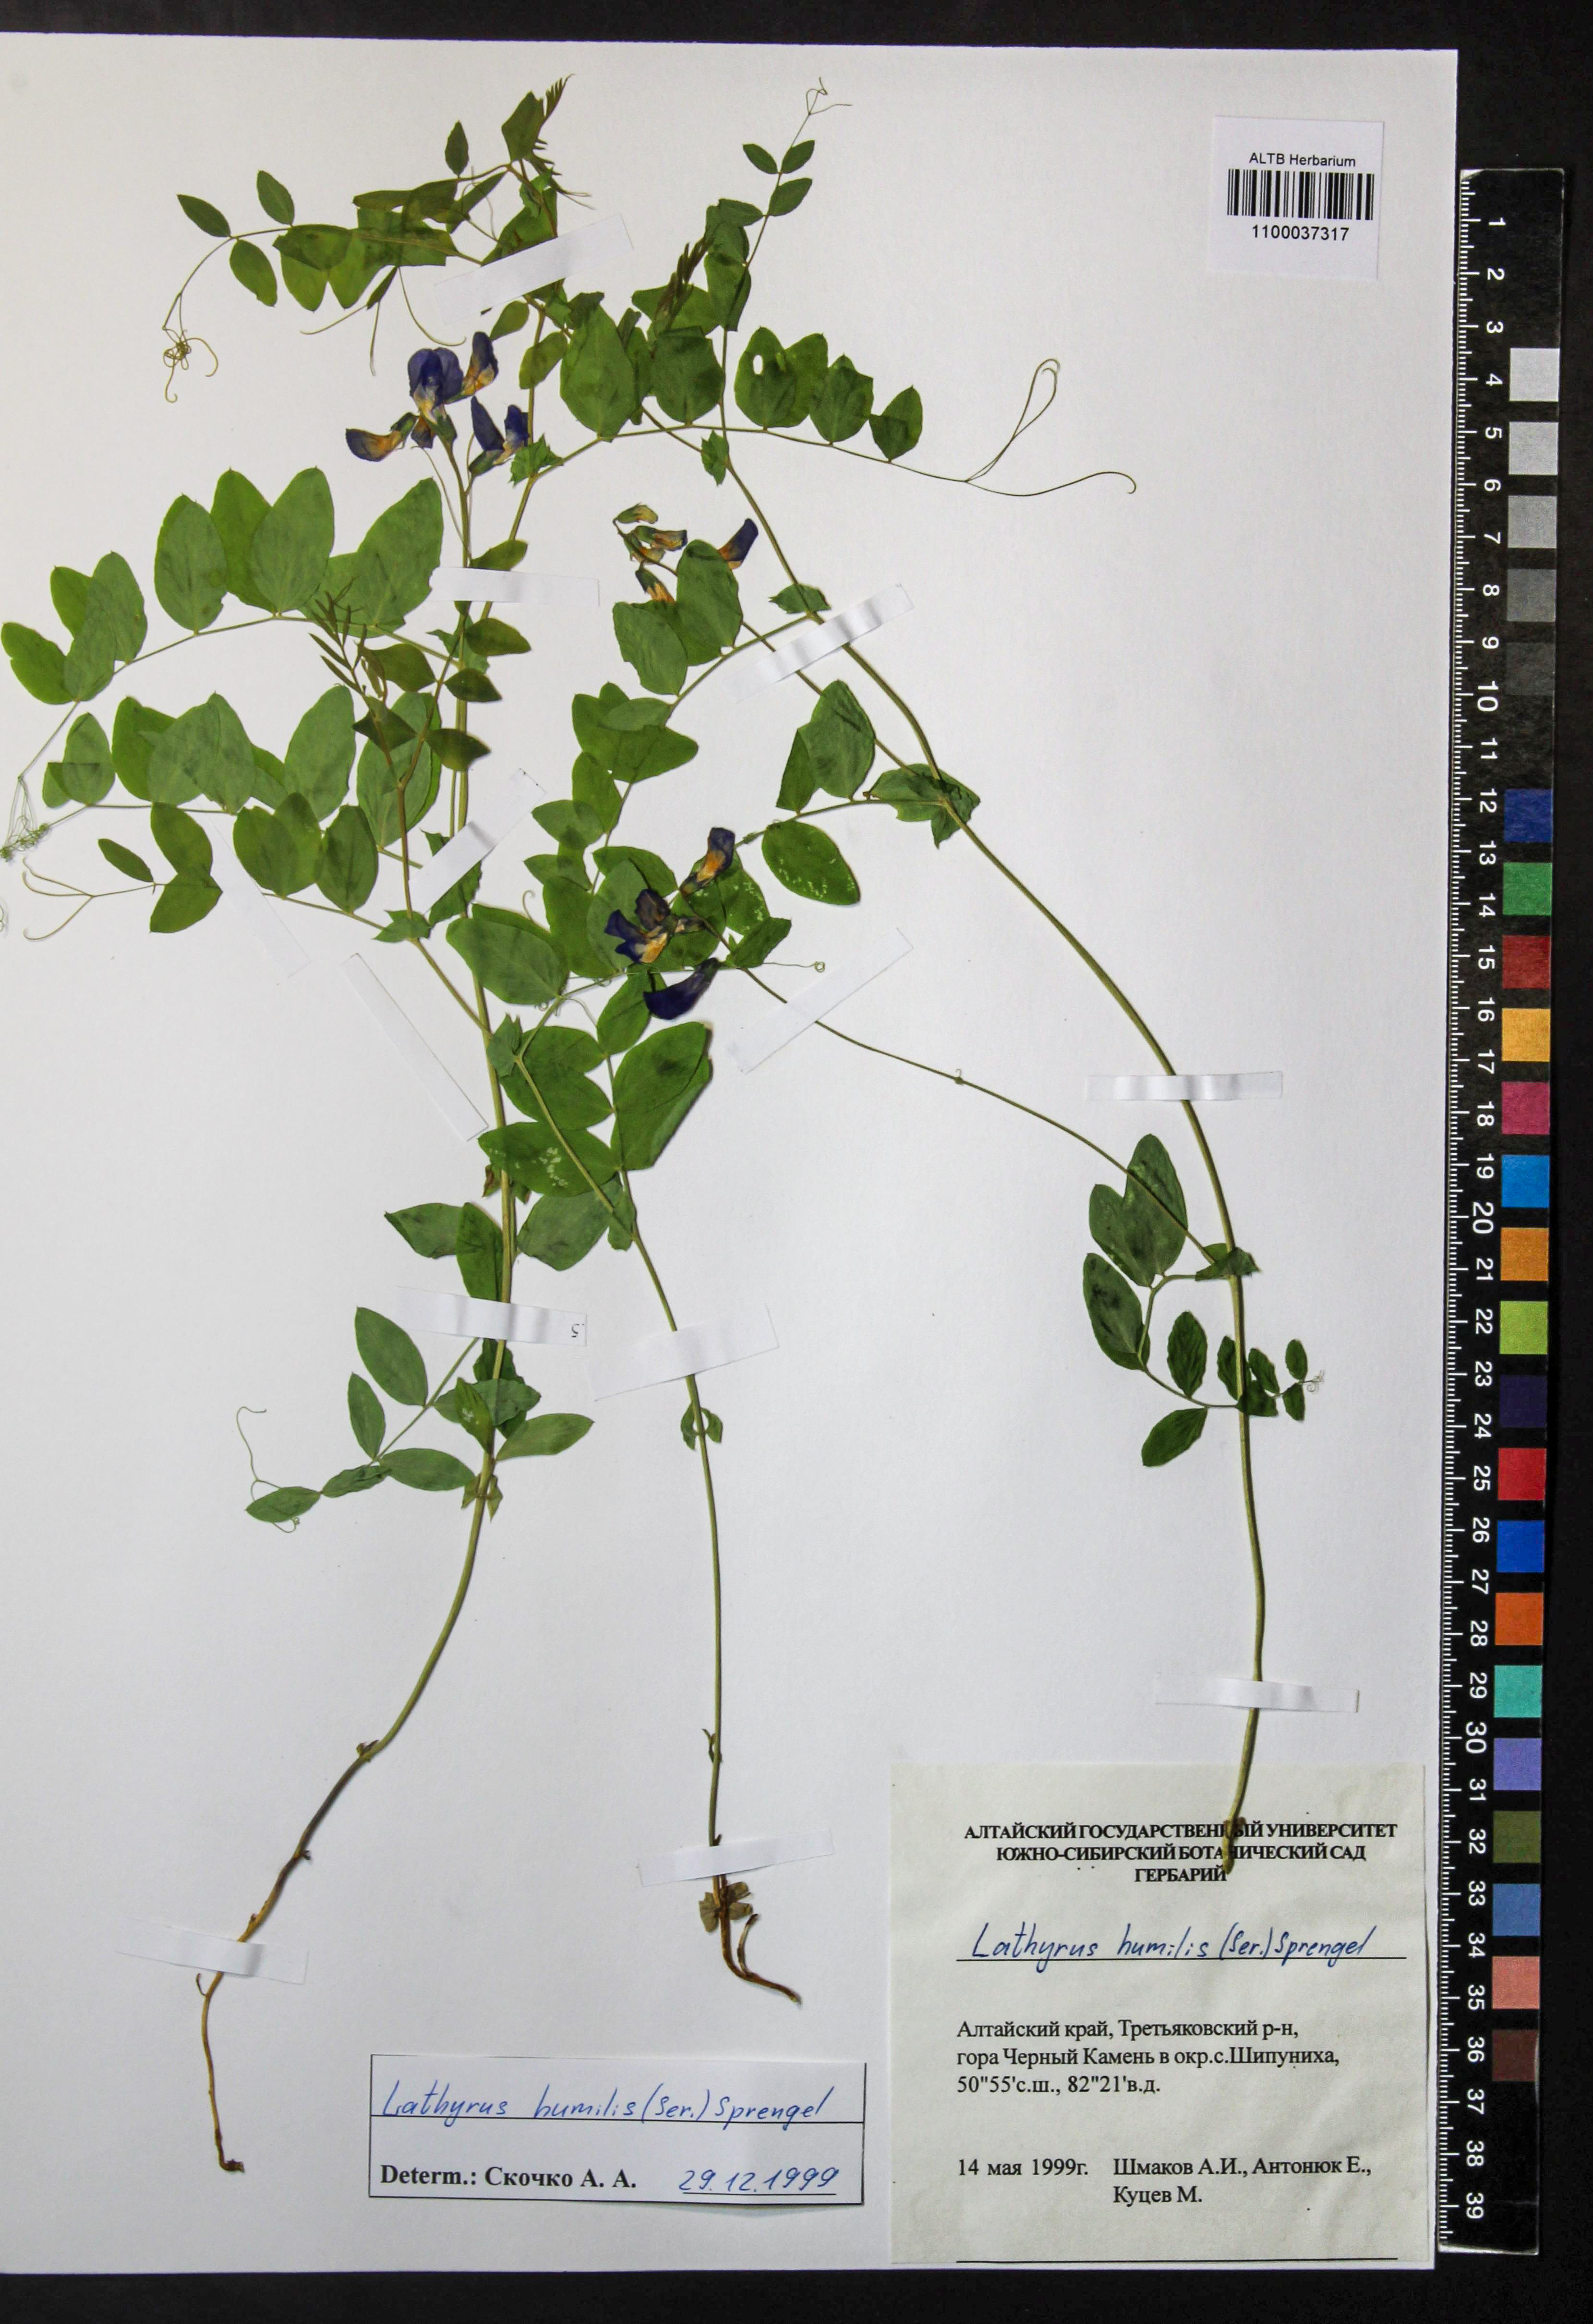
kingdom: Plantae
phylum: Tracheophyta
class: Magnoliopsida
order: Fabales
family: Fabaceae
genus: Lathyrus
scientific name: Lathyrus humilis
